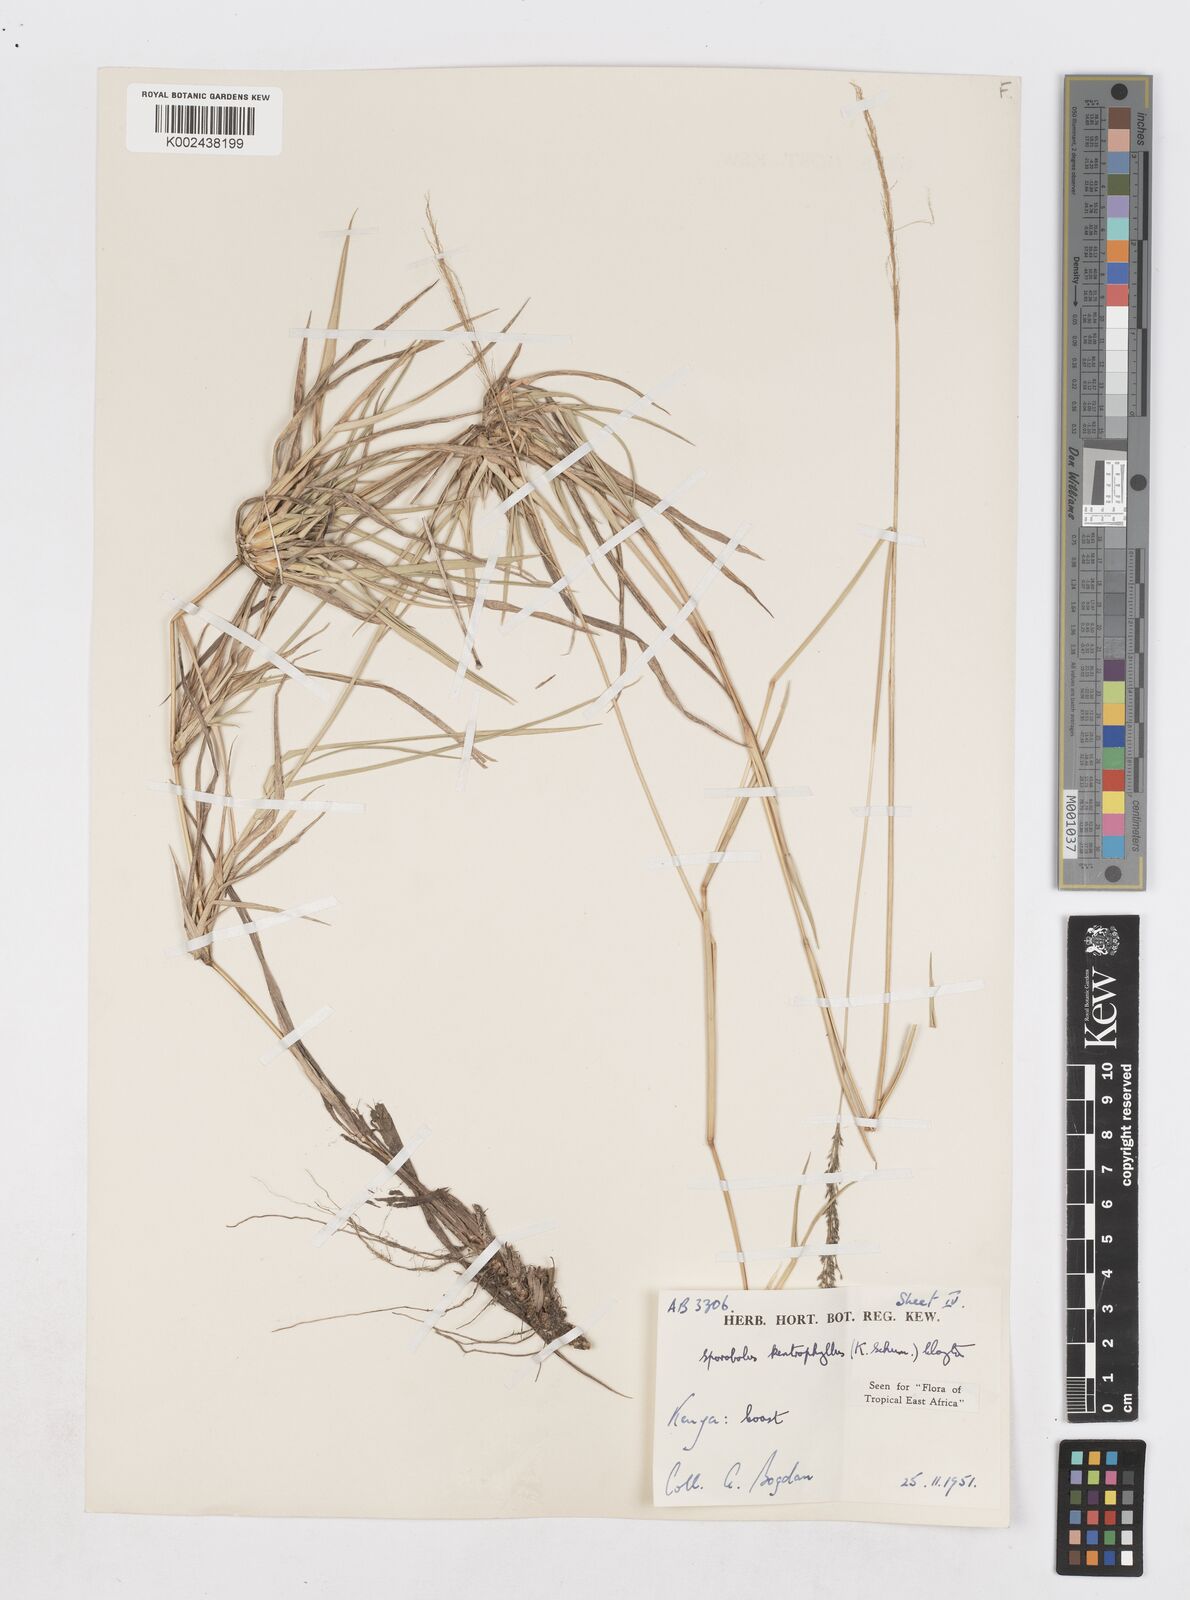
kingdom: Plantae
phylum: Tracheophyta
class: Liliopsida
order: Poales
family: Poaceae
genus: Sporobolus
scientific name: Sporobolus ioclados
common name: Pan dropseed
